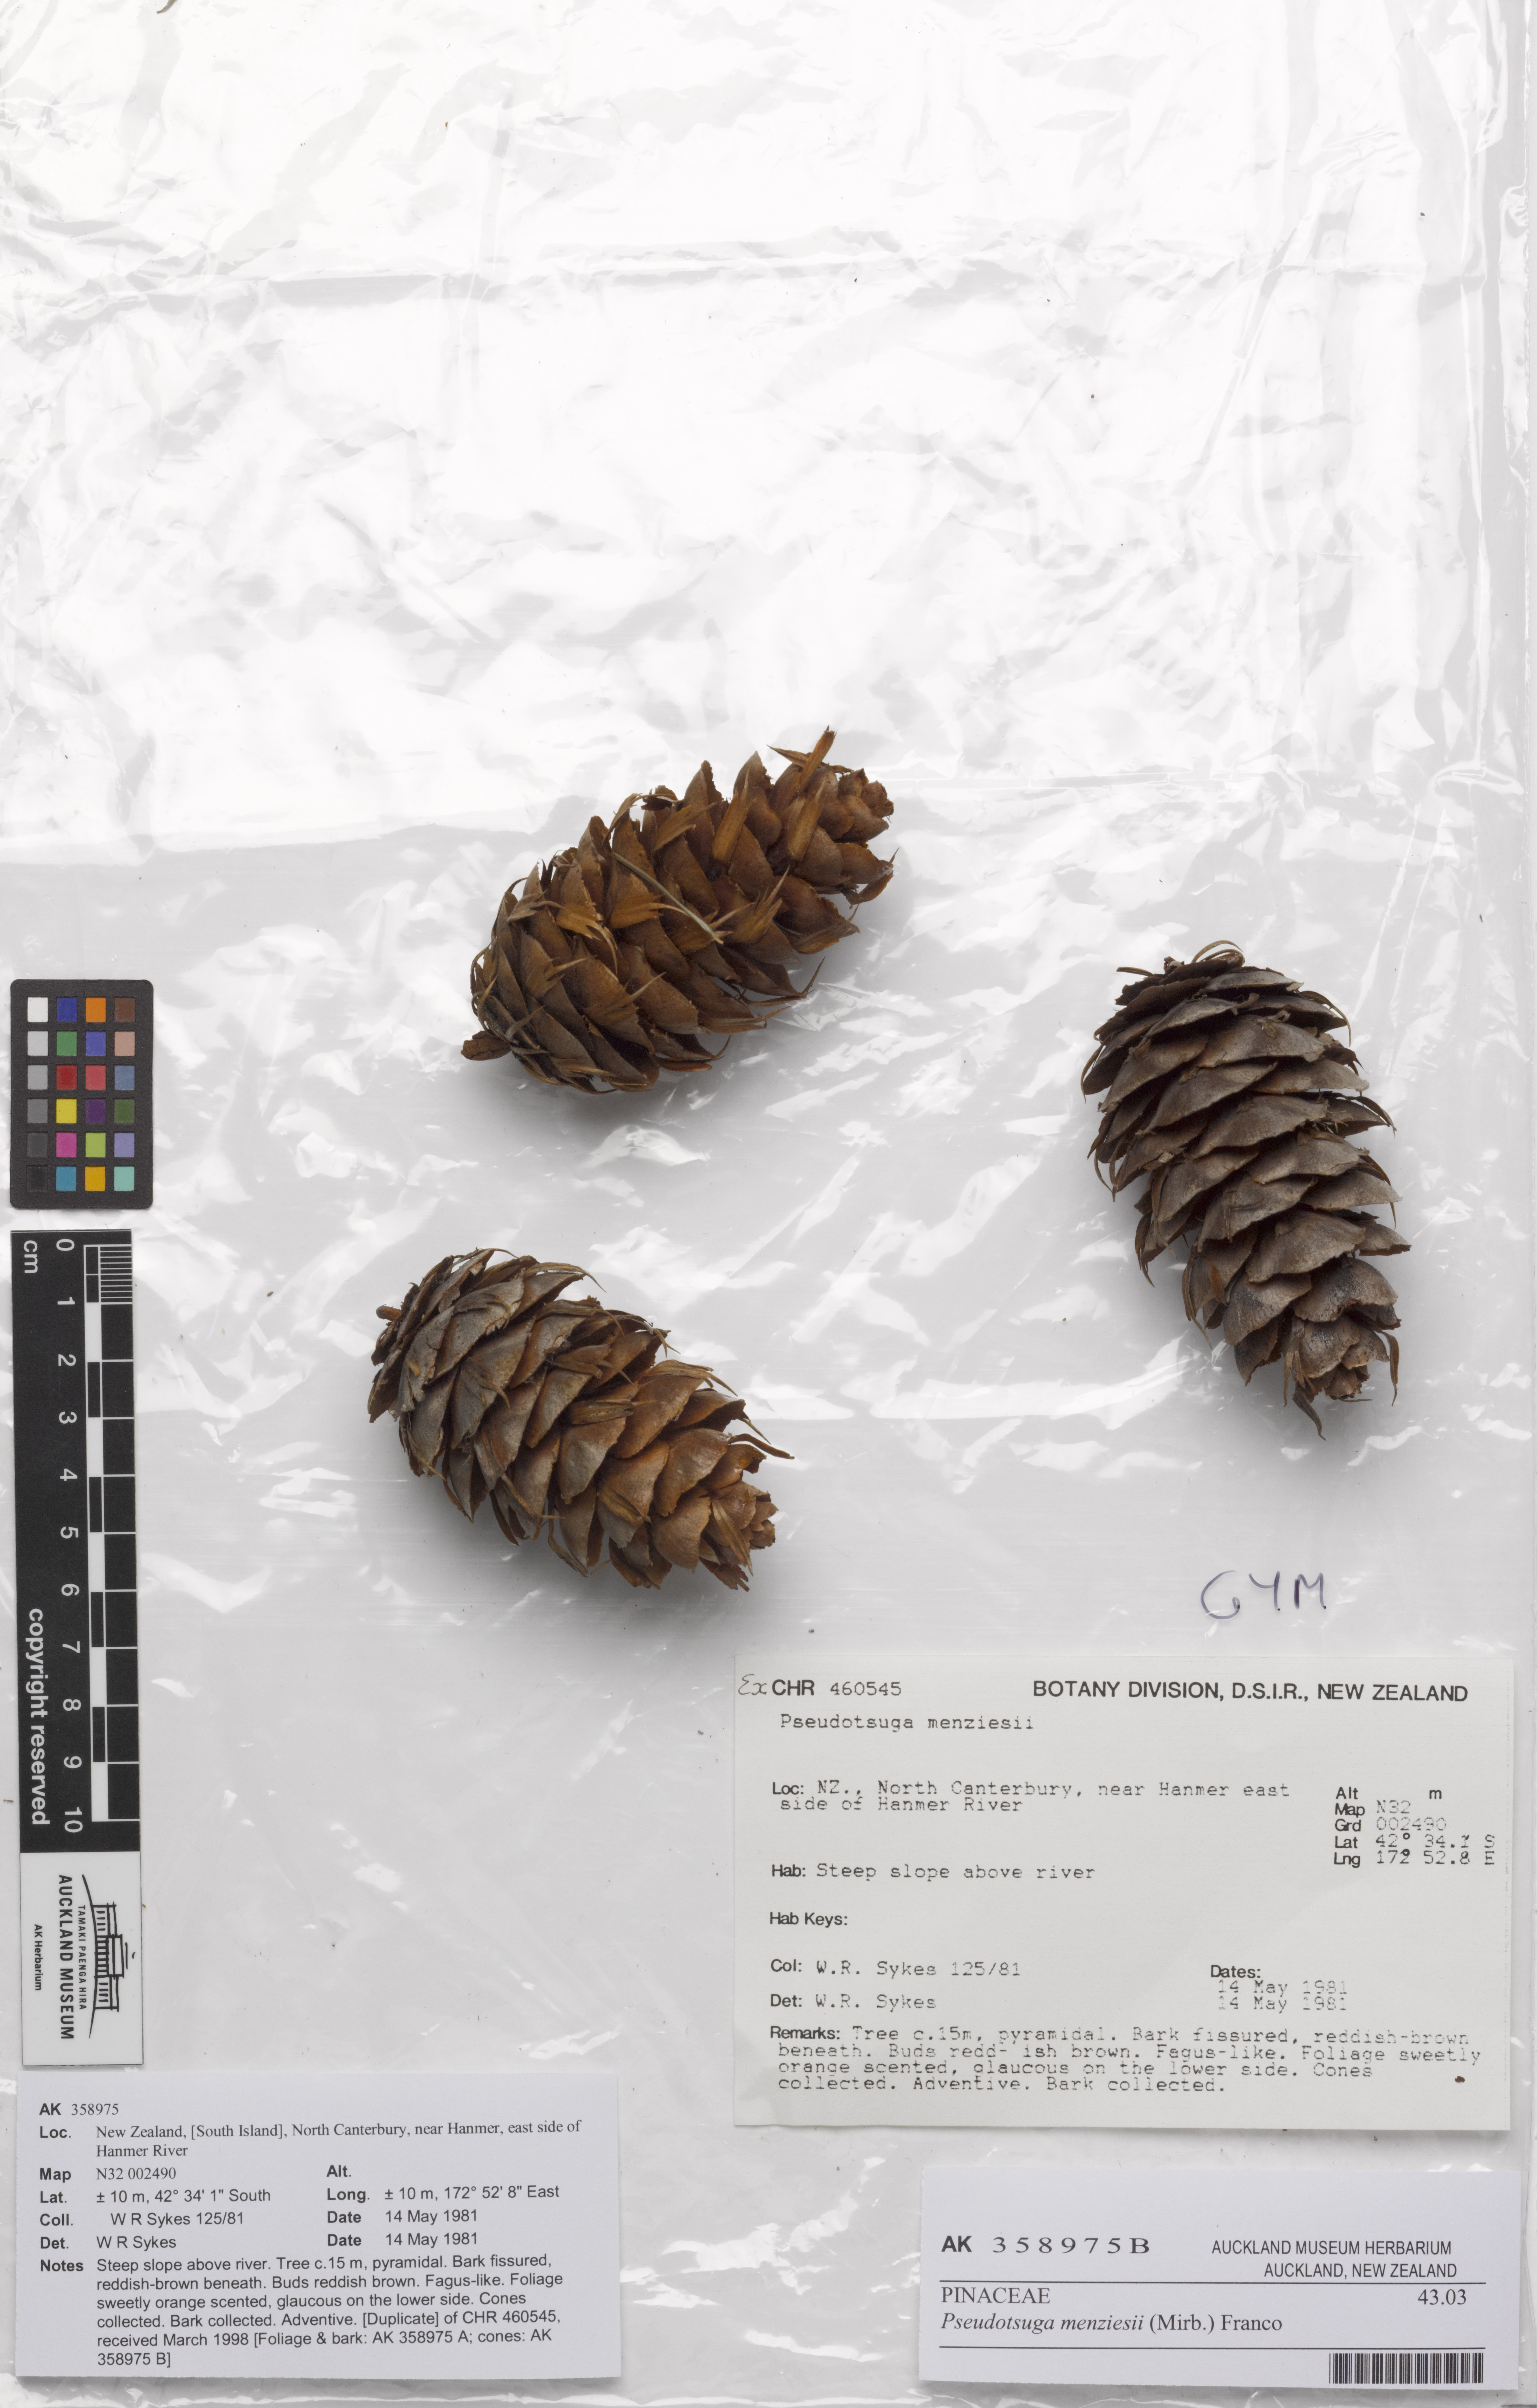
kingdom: Plantae
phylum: Tracheophyta
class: Pinopsida
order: Pinales
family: Pinaceae
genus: Pseudotsuga
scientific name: Pseudotsuga menziesii
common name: Douglas fir
